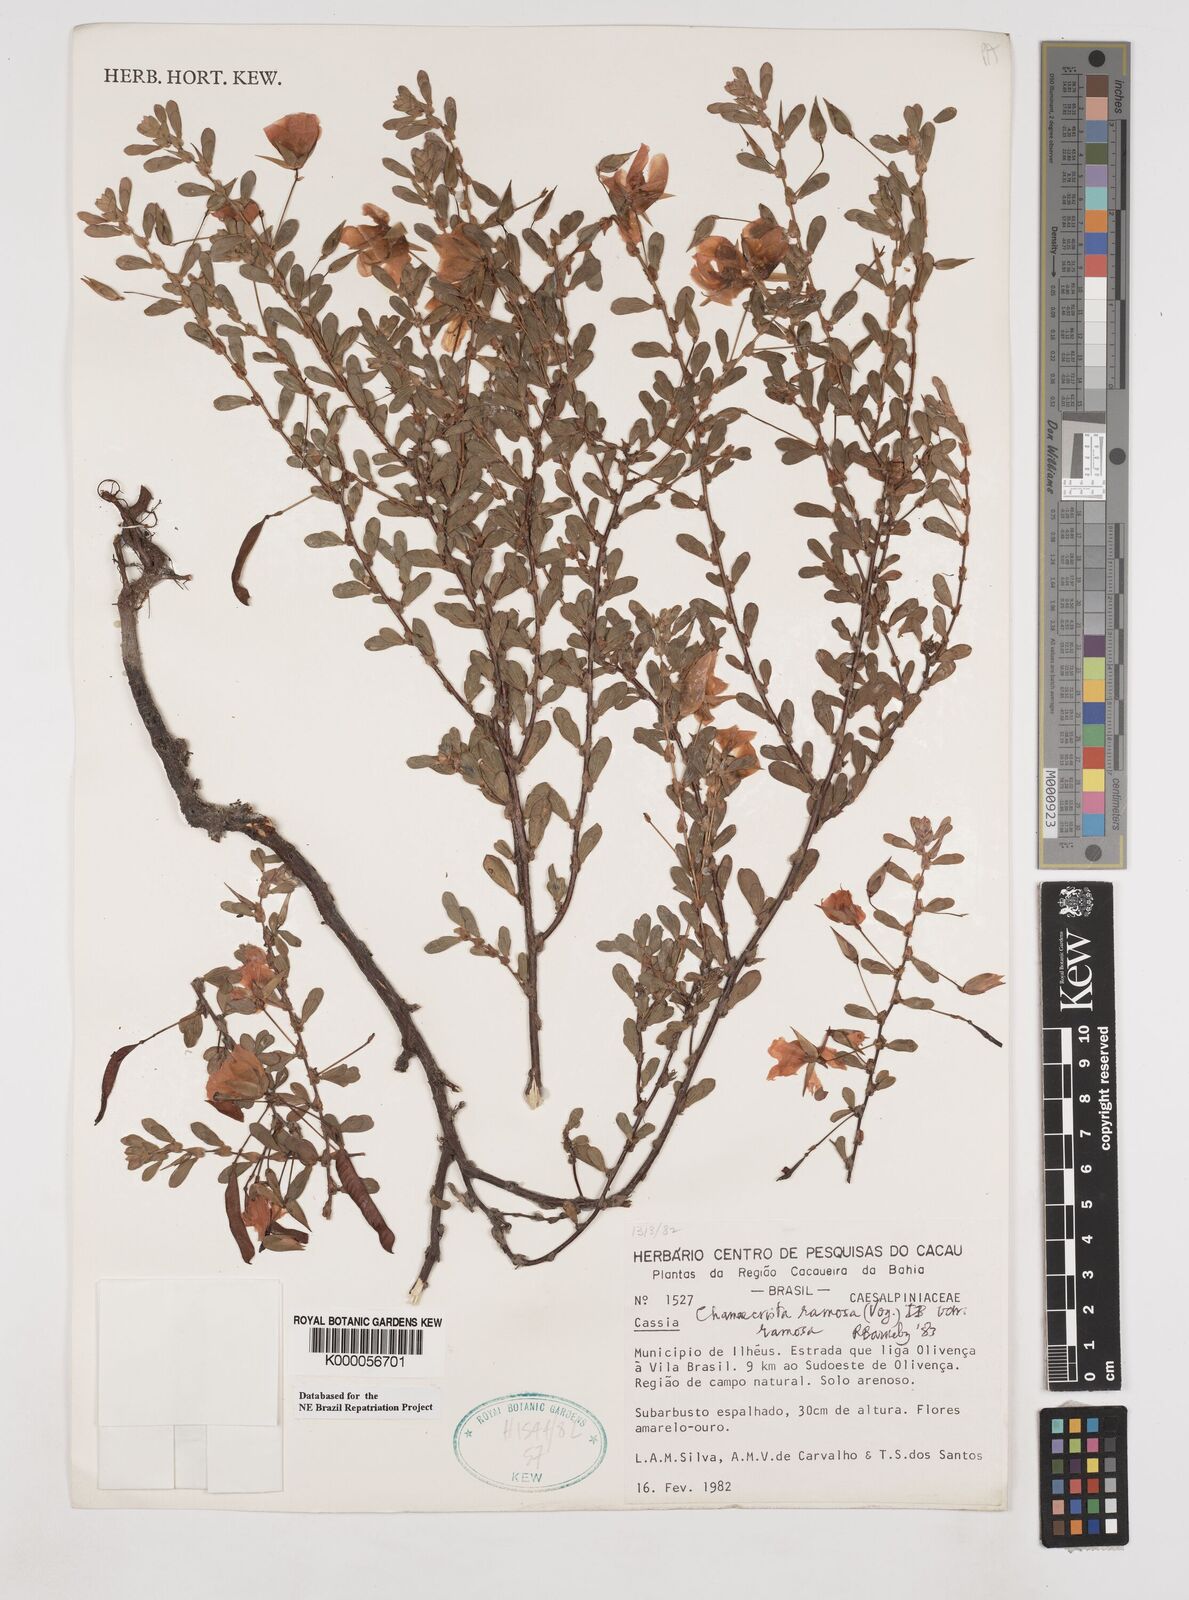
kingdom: Plantae
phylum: Tracheophyta
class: Magnoliopsida
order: Fabales
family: Fabaceae
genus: Chamaecrista
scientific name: Chamaecrista ramosa
